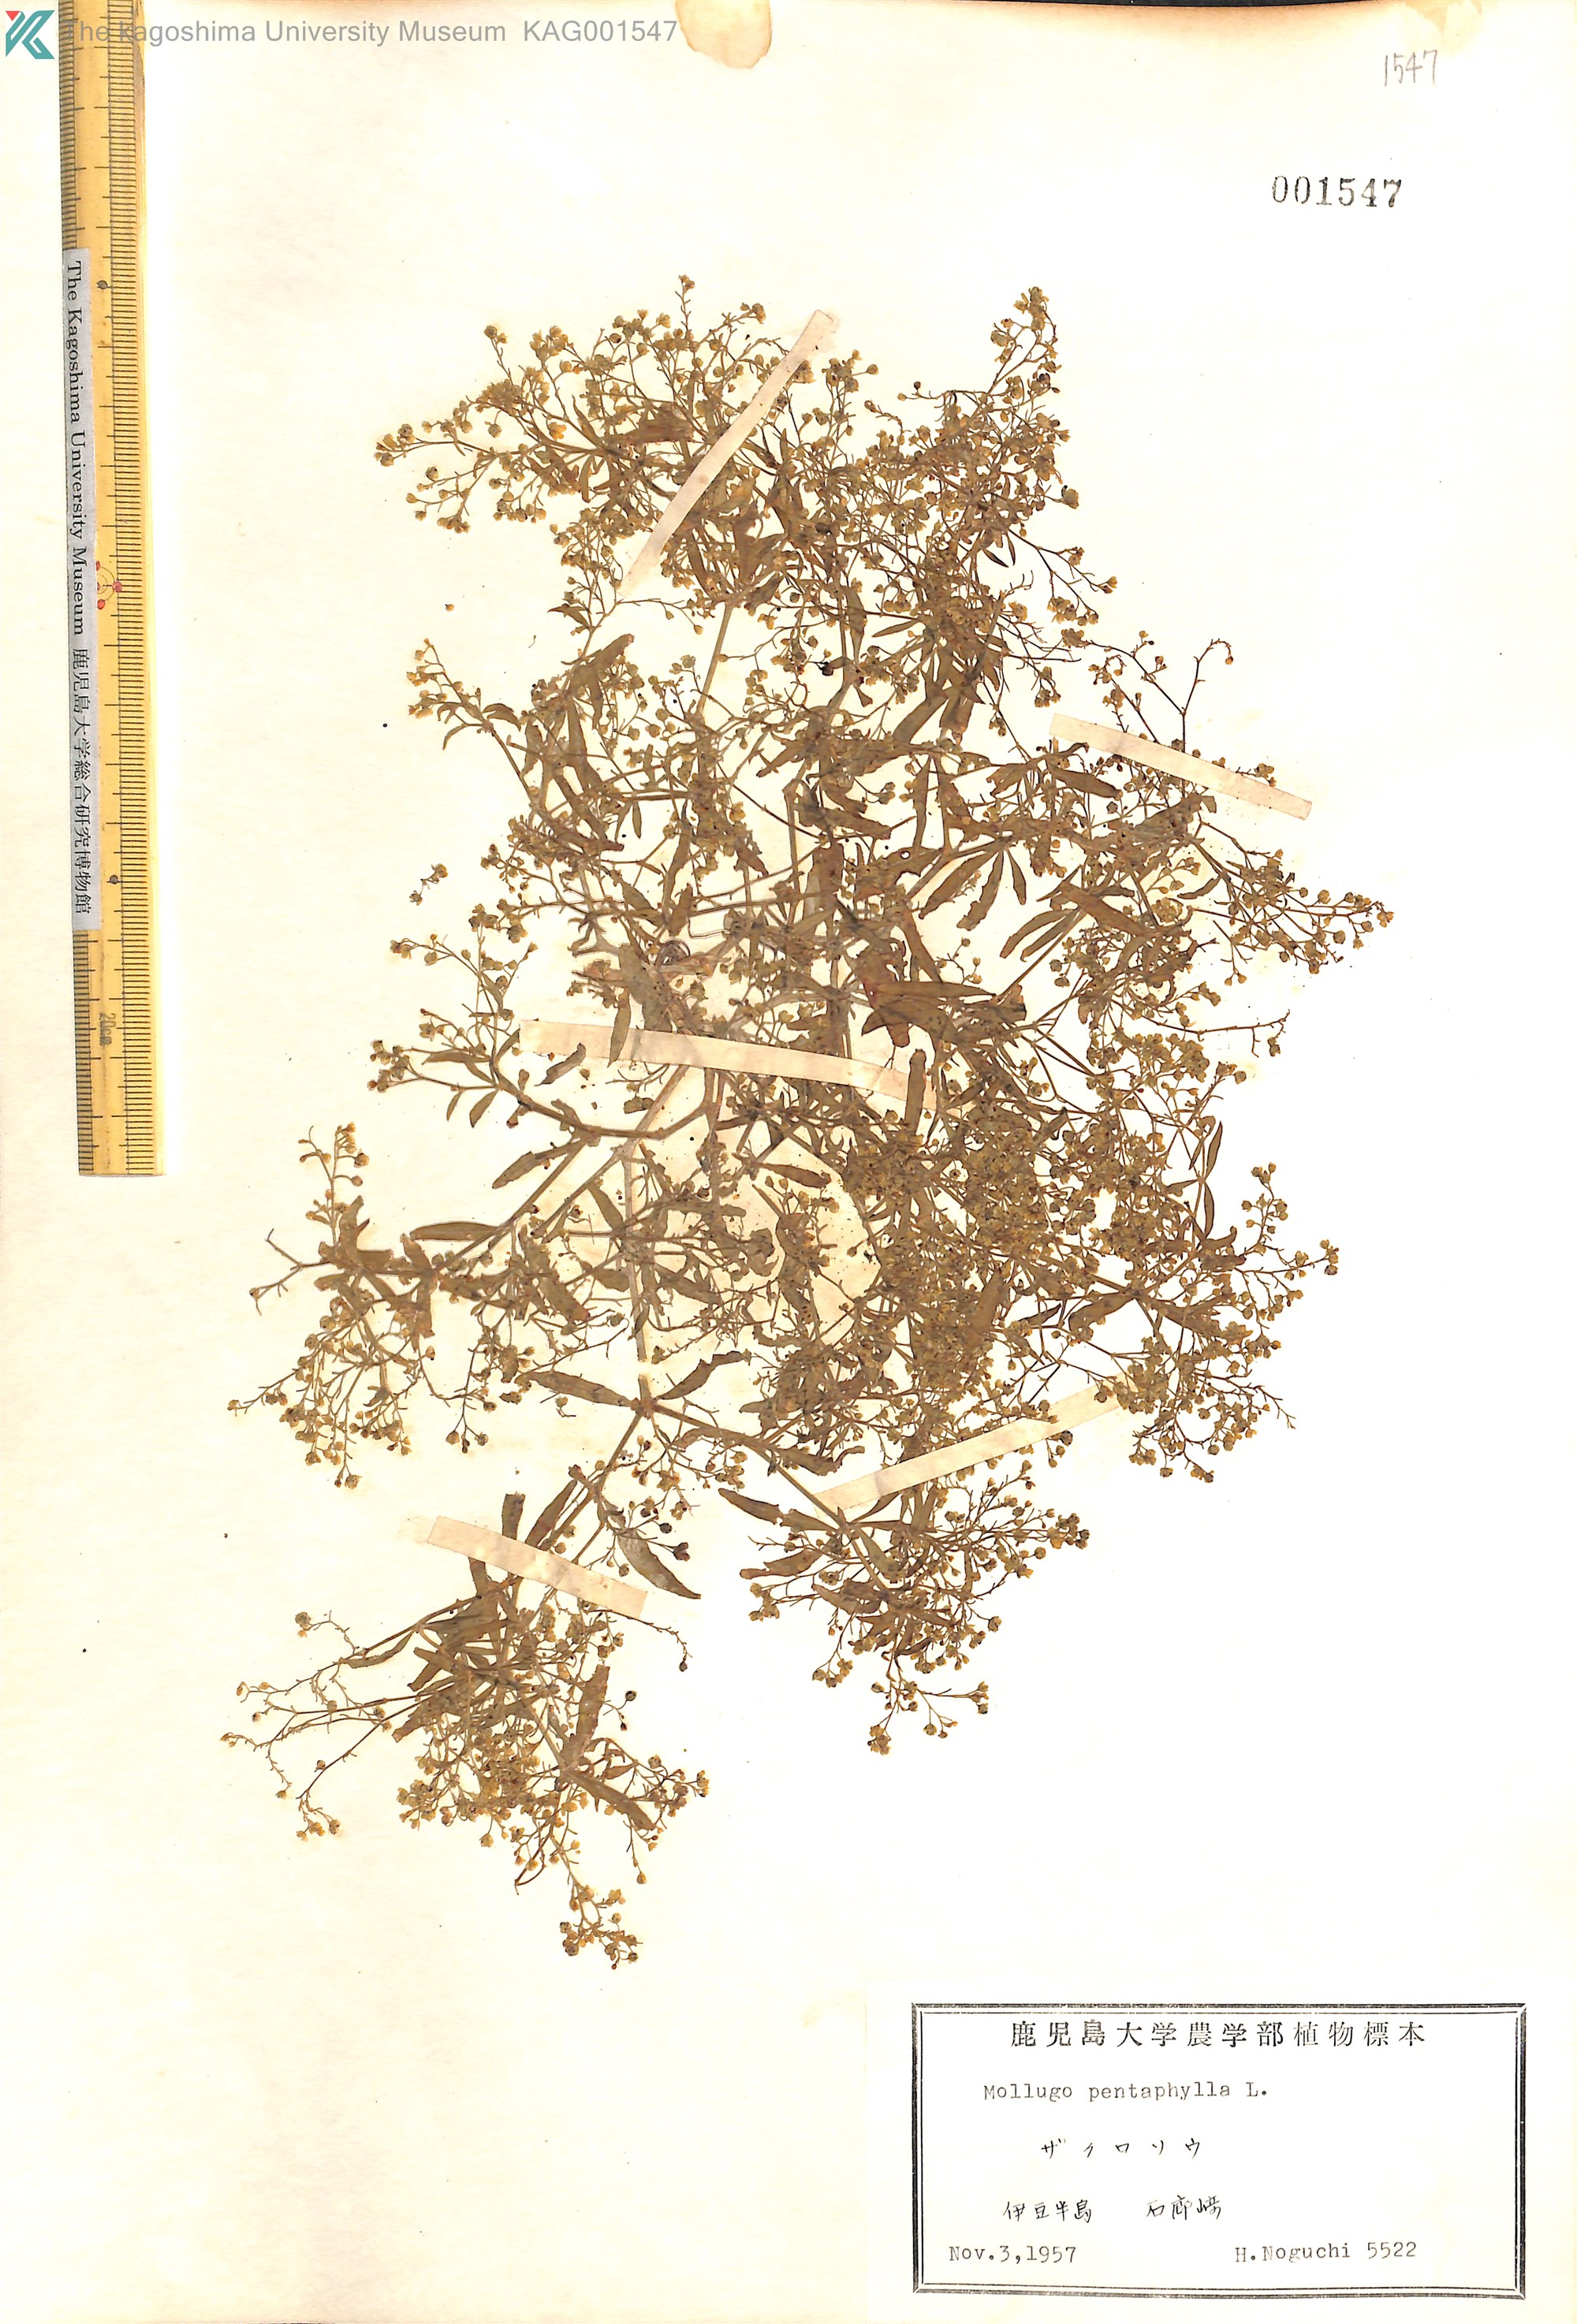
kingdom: Plantae
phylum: Tracheophyta
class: Magnoliopsida
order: Caryophyllales
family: Molluginaceae
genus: Trigastrotheca
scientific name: Trigastrotheca pentaphylla
